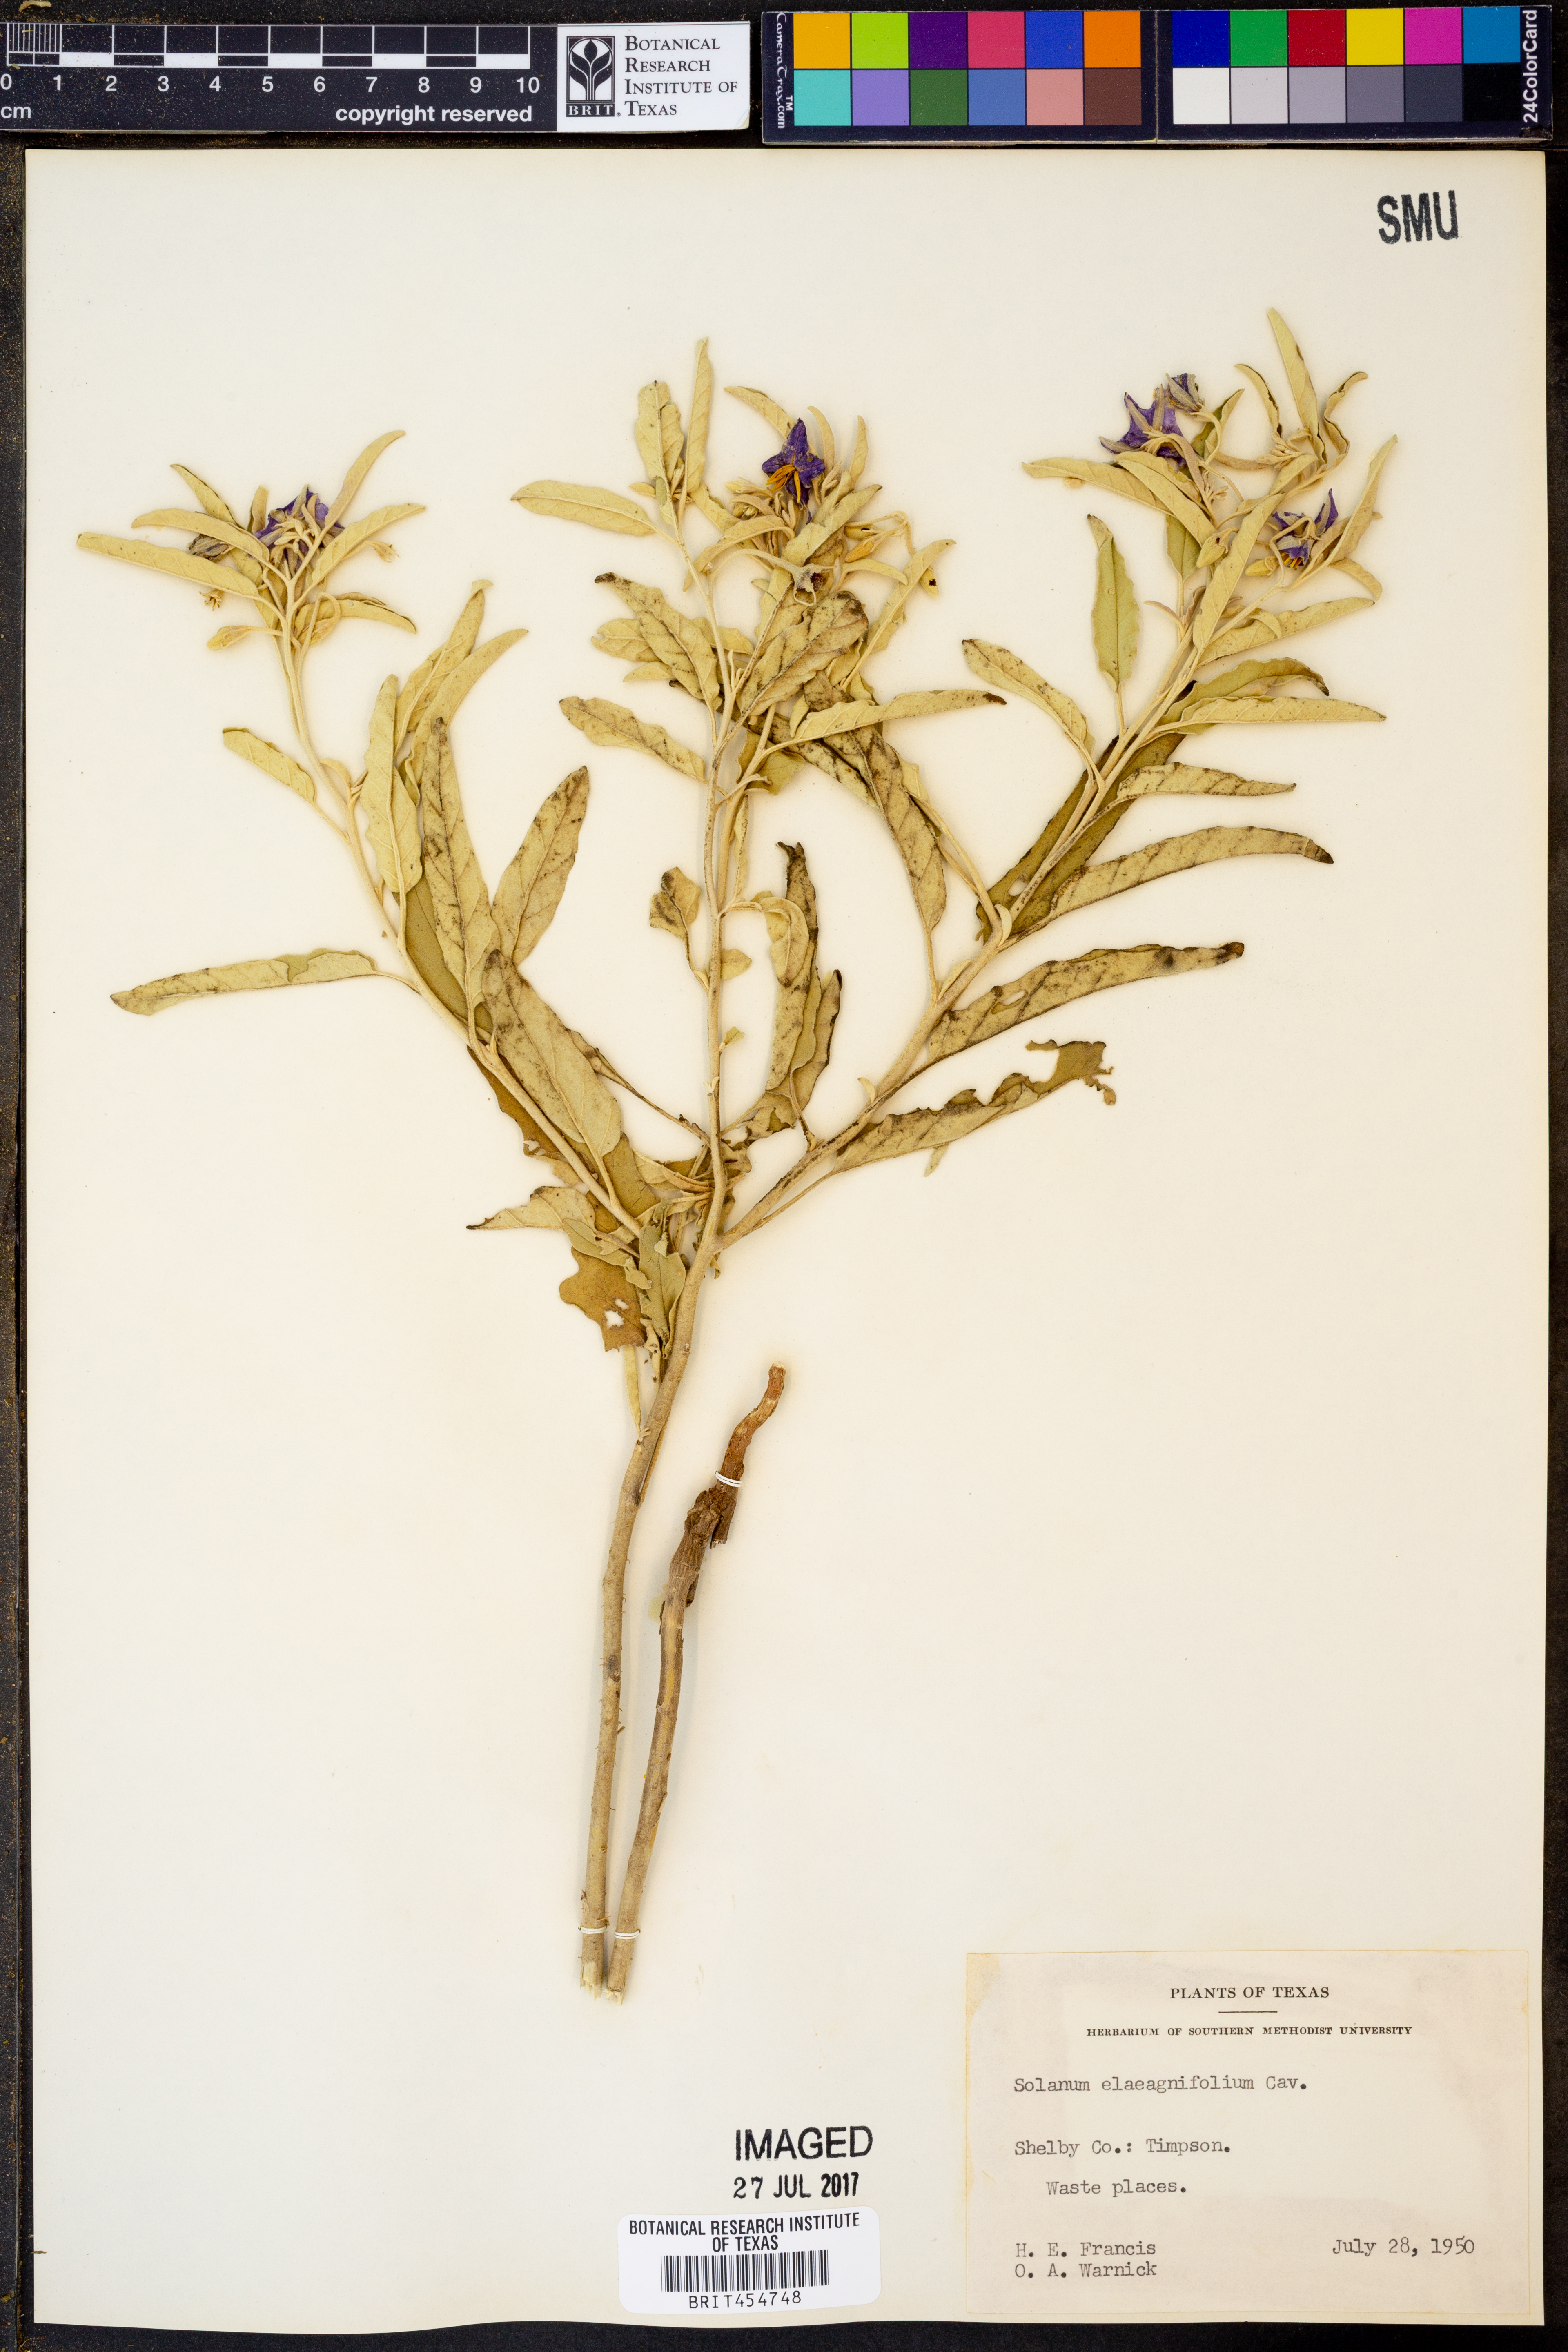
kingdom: Plantae
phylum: Tracheophyta
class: Magnoliopsida
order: Solanales
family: Solanaceae
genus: Solanum
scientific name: Solanum elaeagnifolium
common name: Silverleaf nightshade
